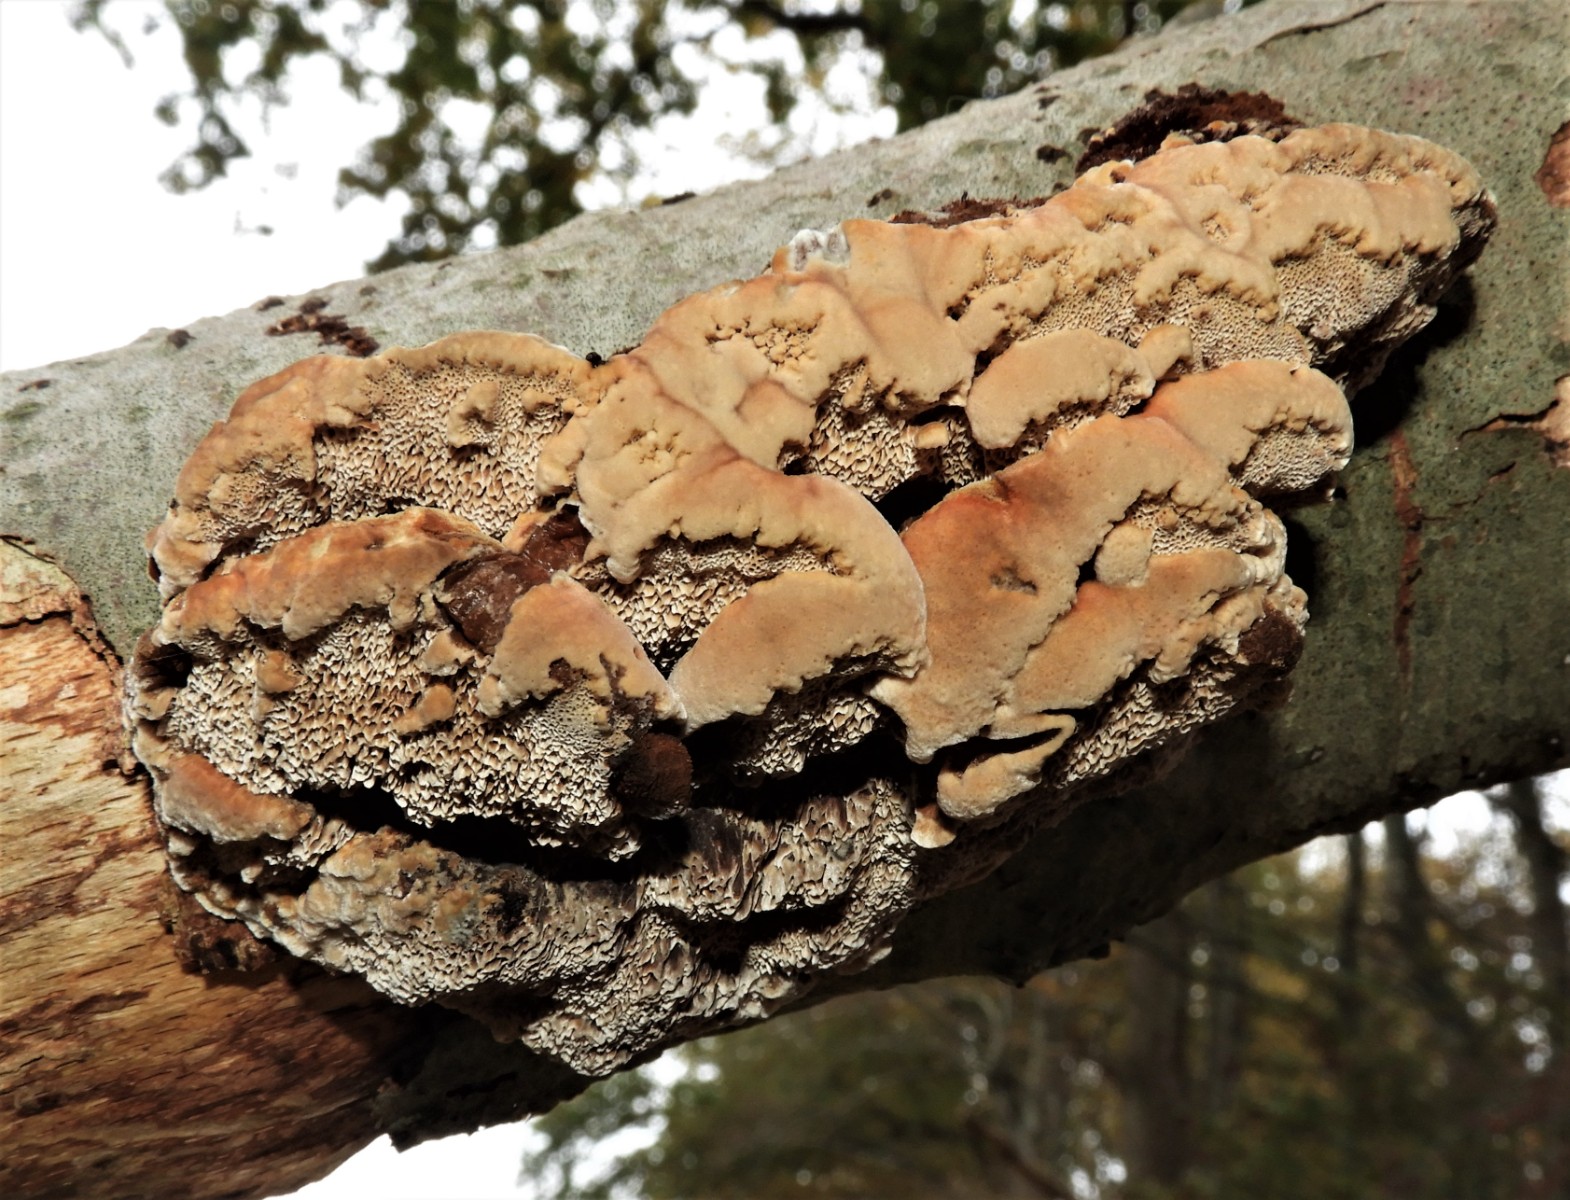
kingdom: Fungi
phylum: Basidiomycota
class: Agaricomycetes
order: Hymenochaetales
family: Hymenochaetaceae
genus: Mensularia
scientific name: Mensularia nodulosa
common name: bøge-spejlporesvamp
